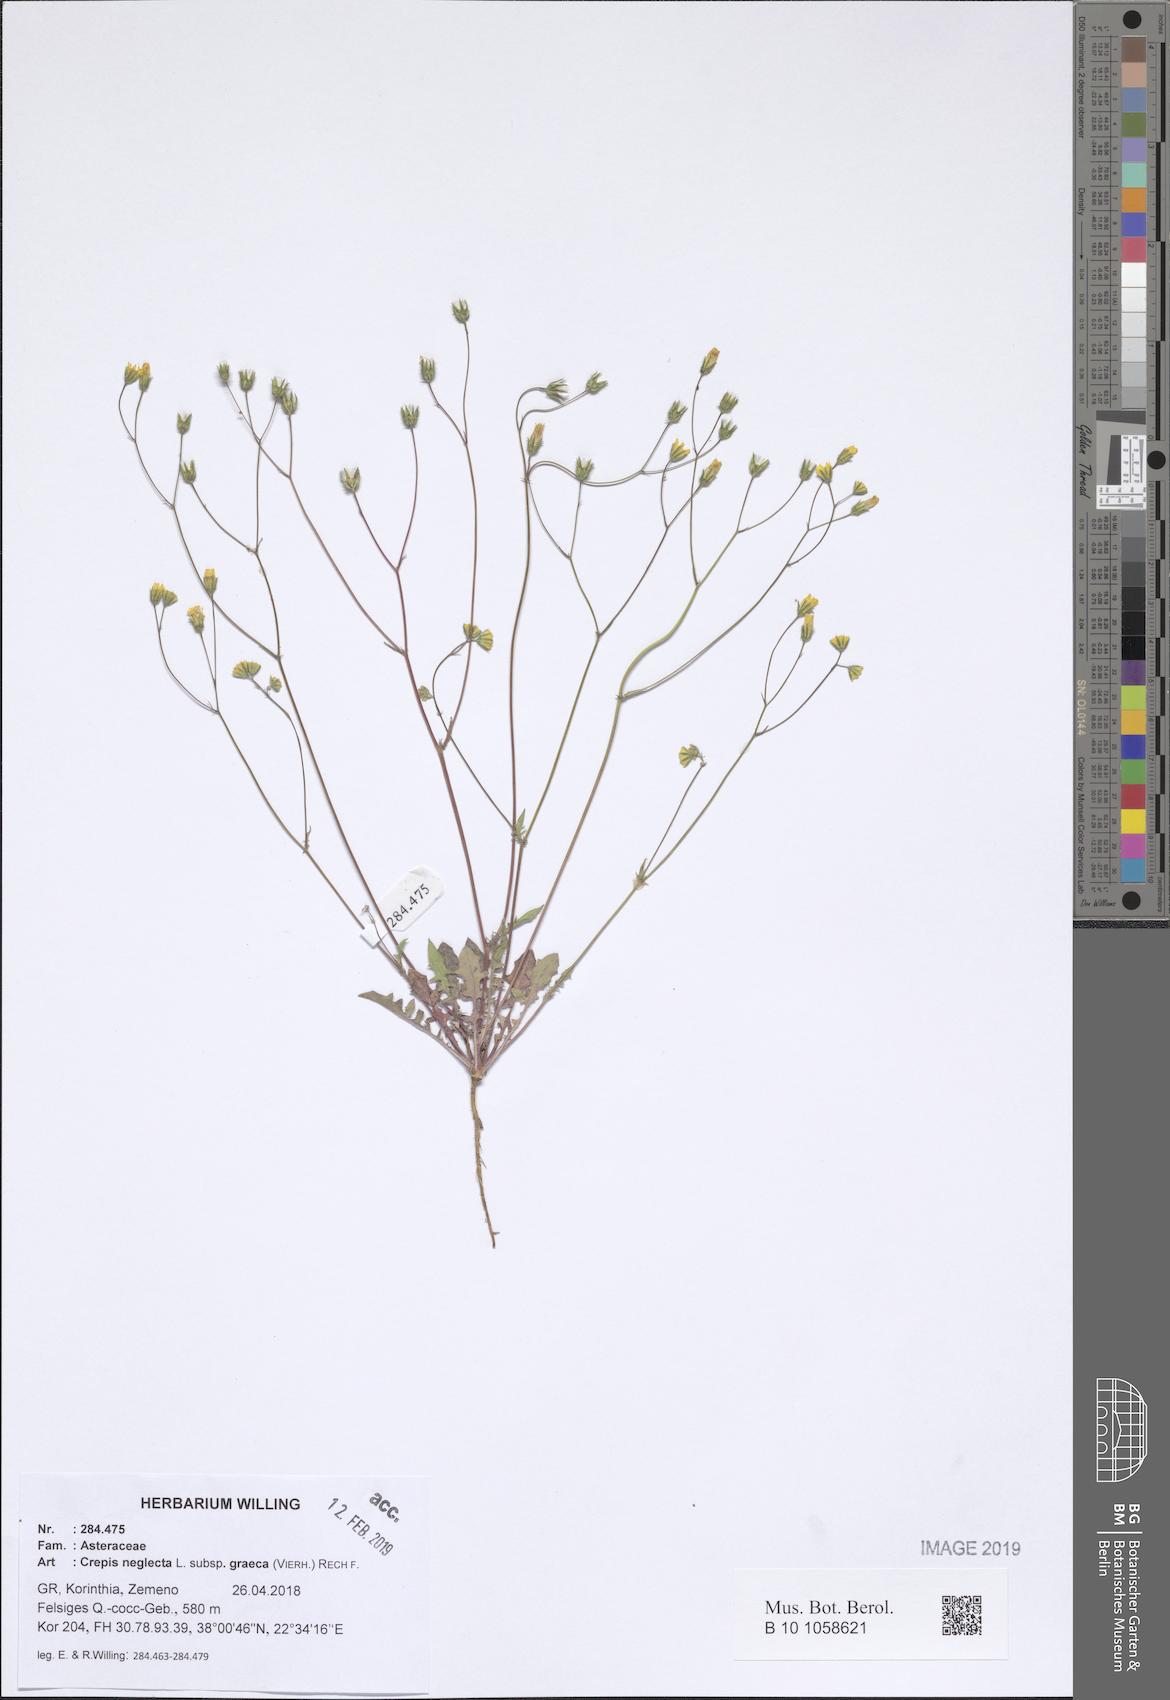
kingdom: Plantae
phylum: Tracheophyta
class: Magnoliopsida
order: Asterales
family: Asteraceae
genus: Crepis
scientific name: Crepis neglecta
